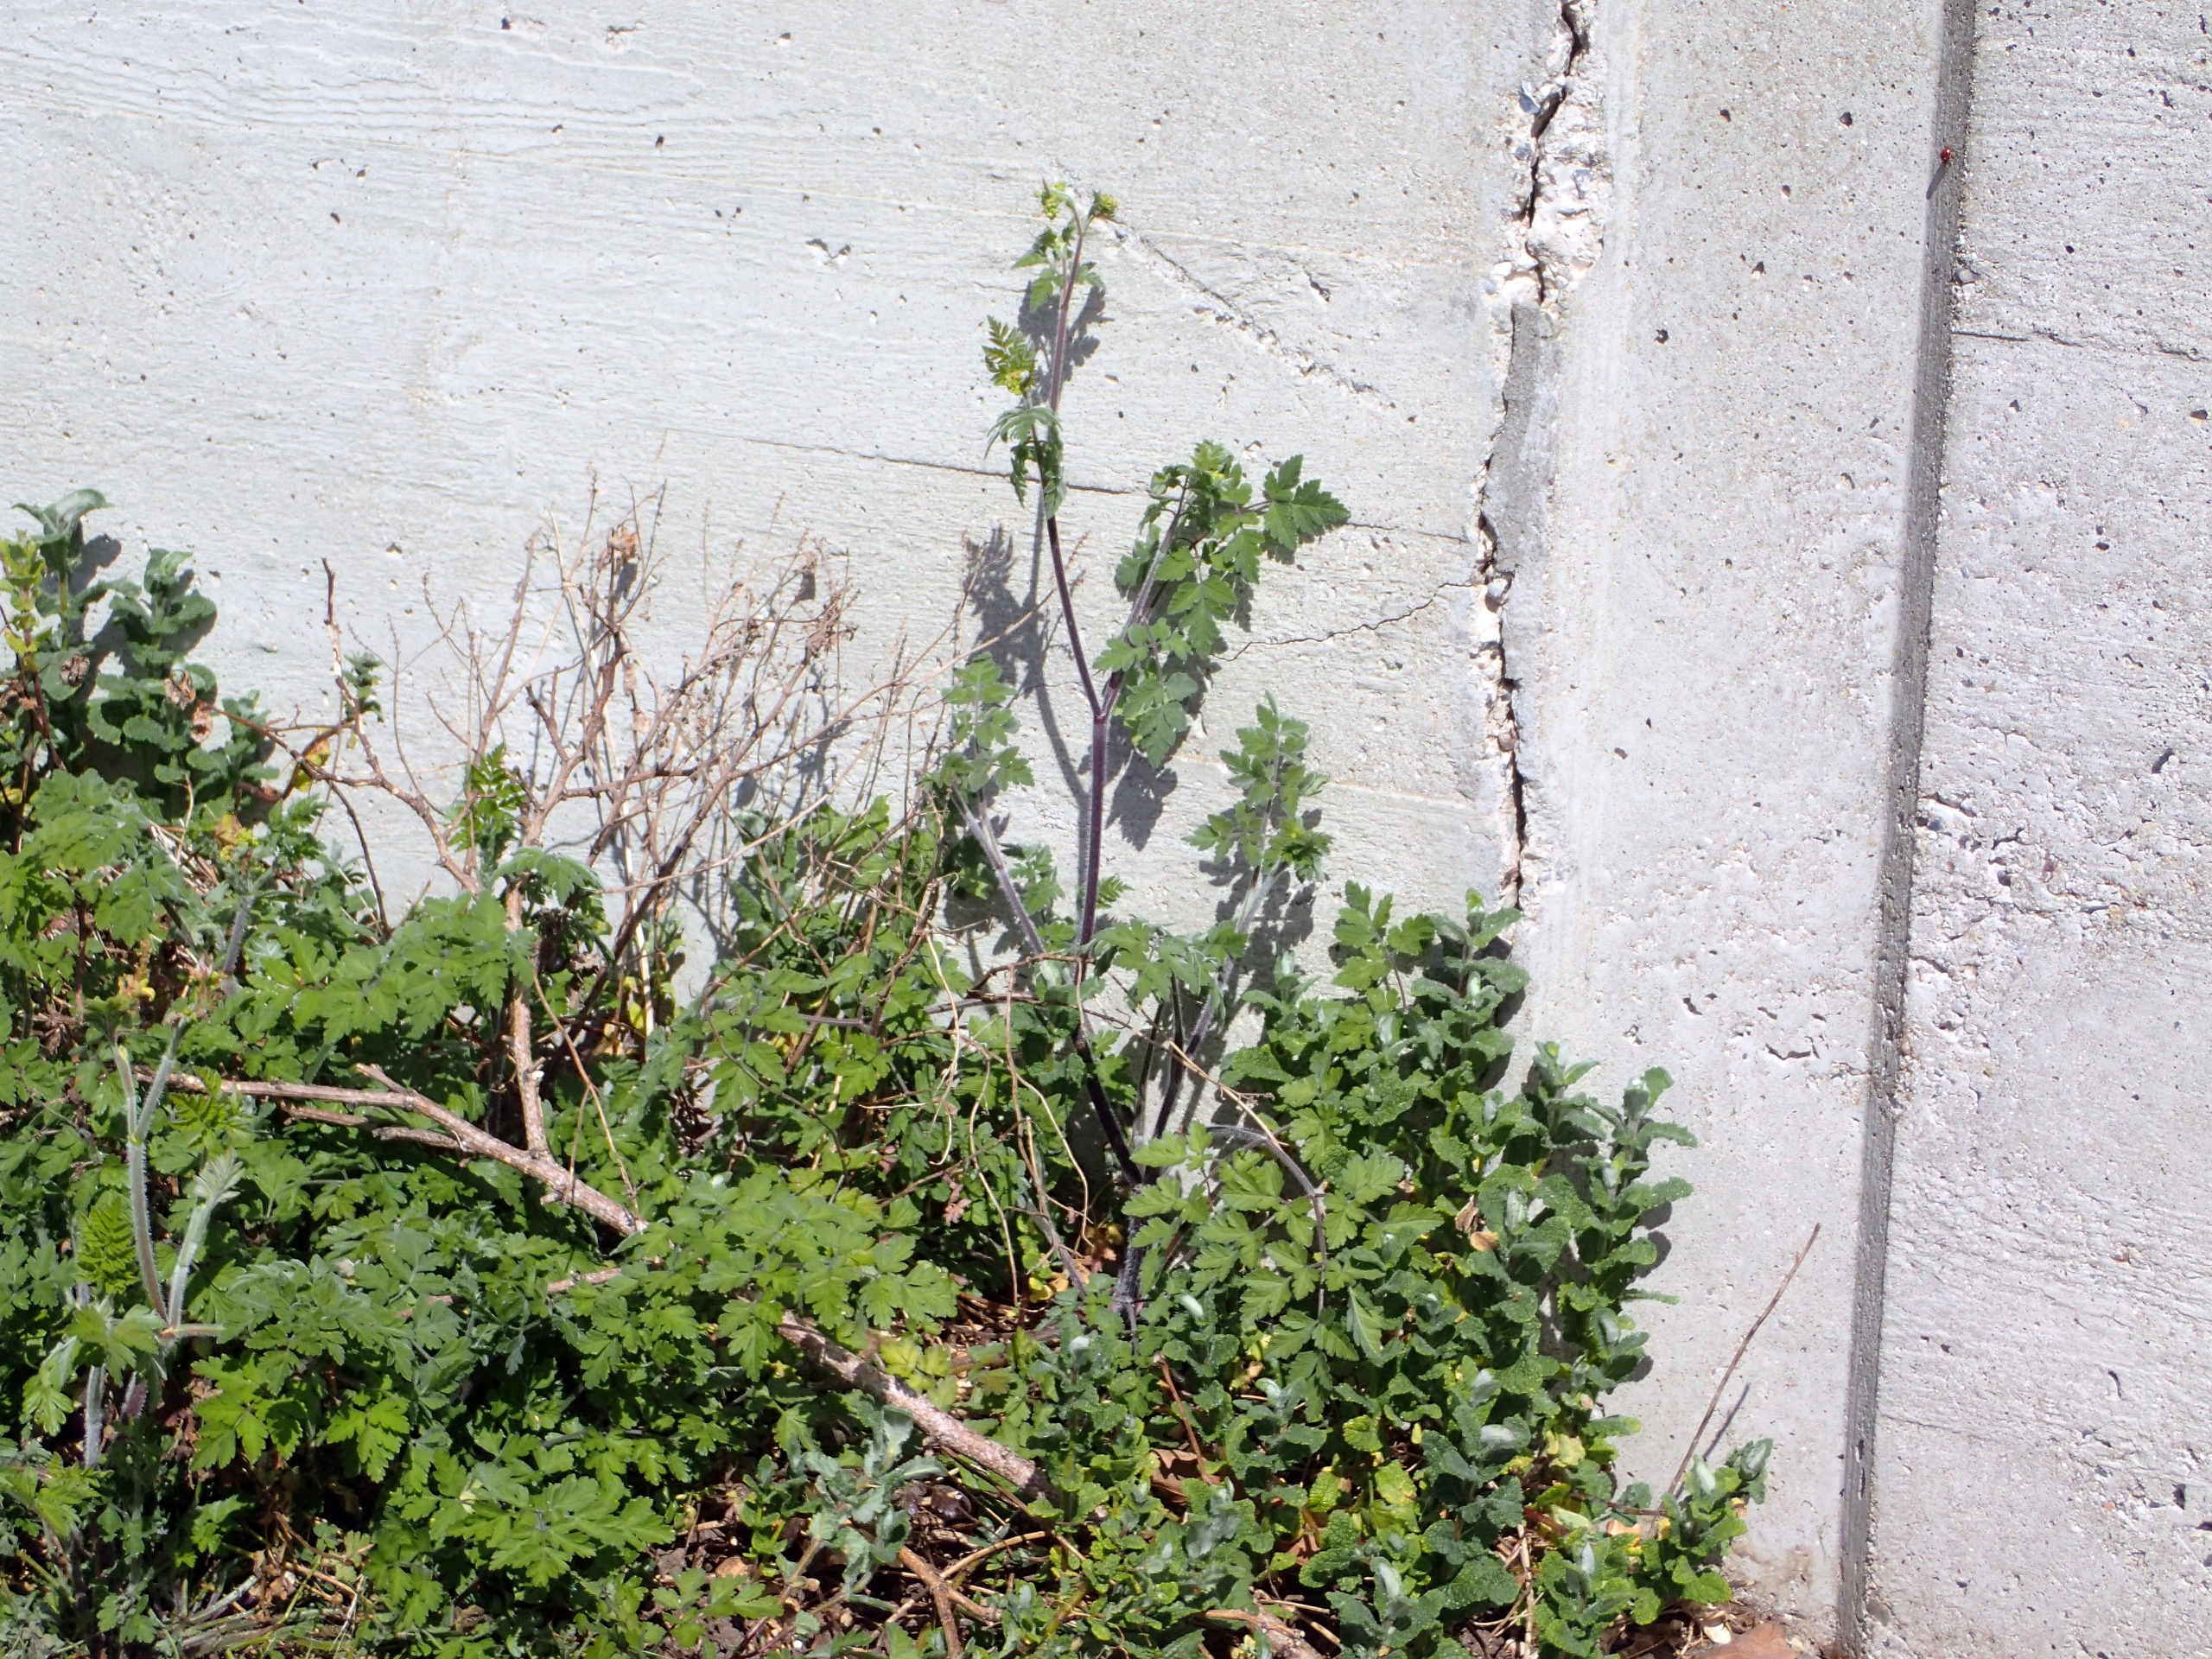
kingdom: Plantae
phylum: Tracheophyta
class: Magnoliopsida
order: Apiales
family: Apiaceae
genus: Chaerophyllum
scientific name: Chaerophyllum temulum
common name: Almindelig hulsvøb
